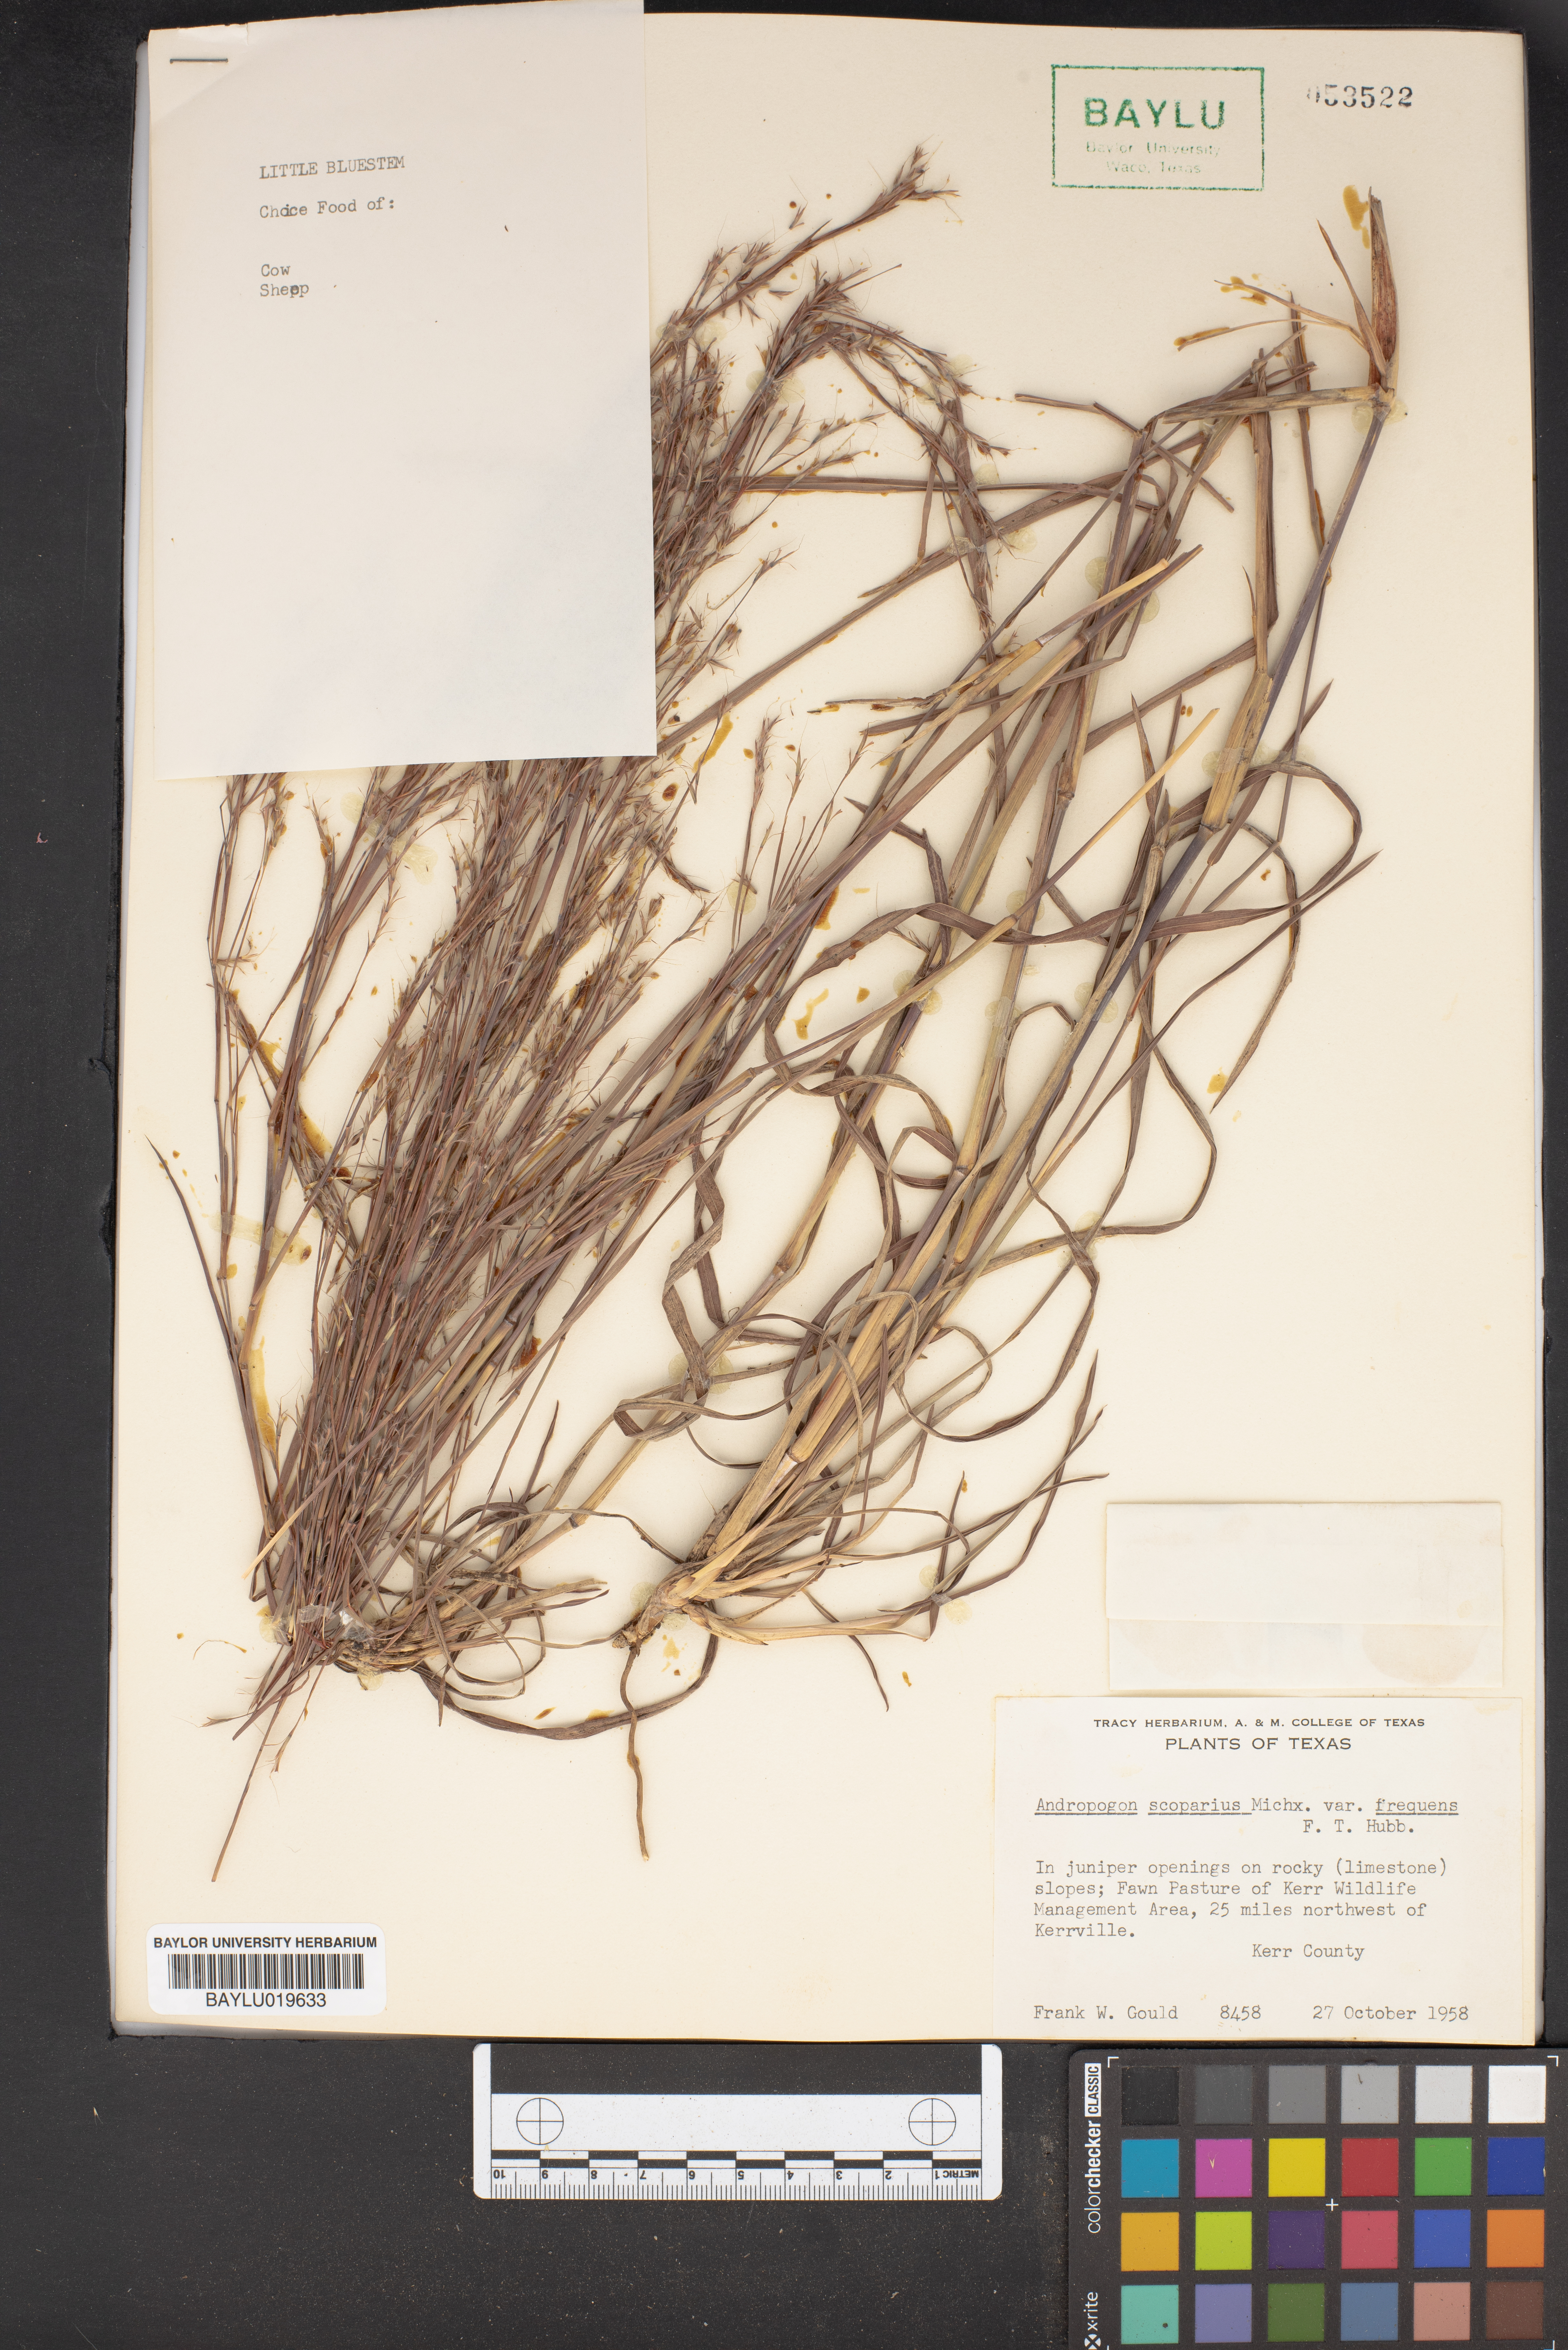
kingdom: Plantae
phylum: Tracheophyta
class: Liliopsida
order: Poales
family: Poaceae
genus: Schizachyrium
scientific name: Schizachyrium scoparium
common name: Little bluestem
